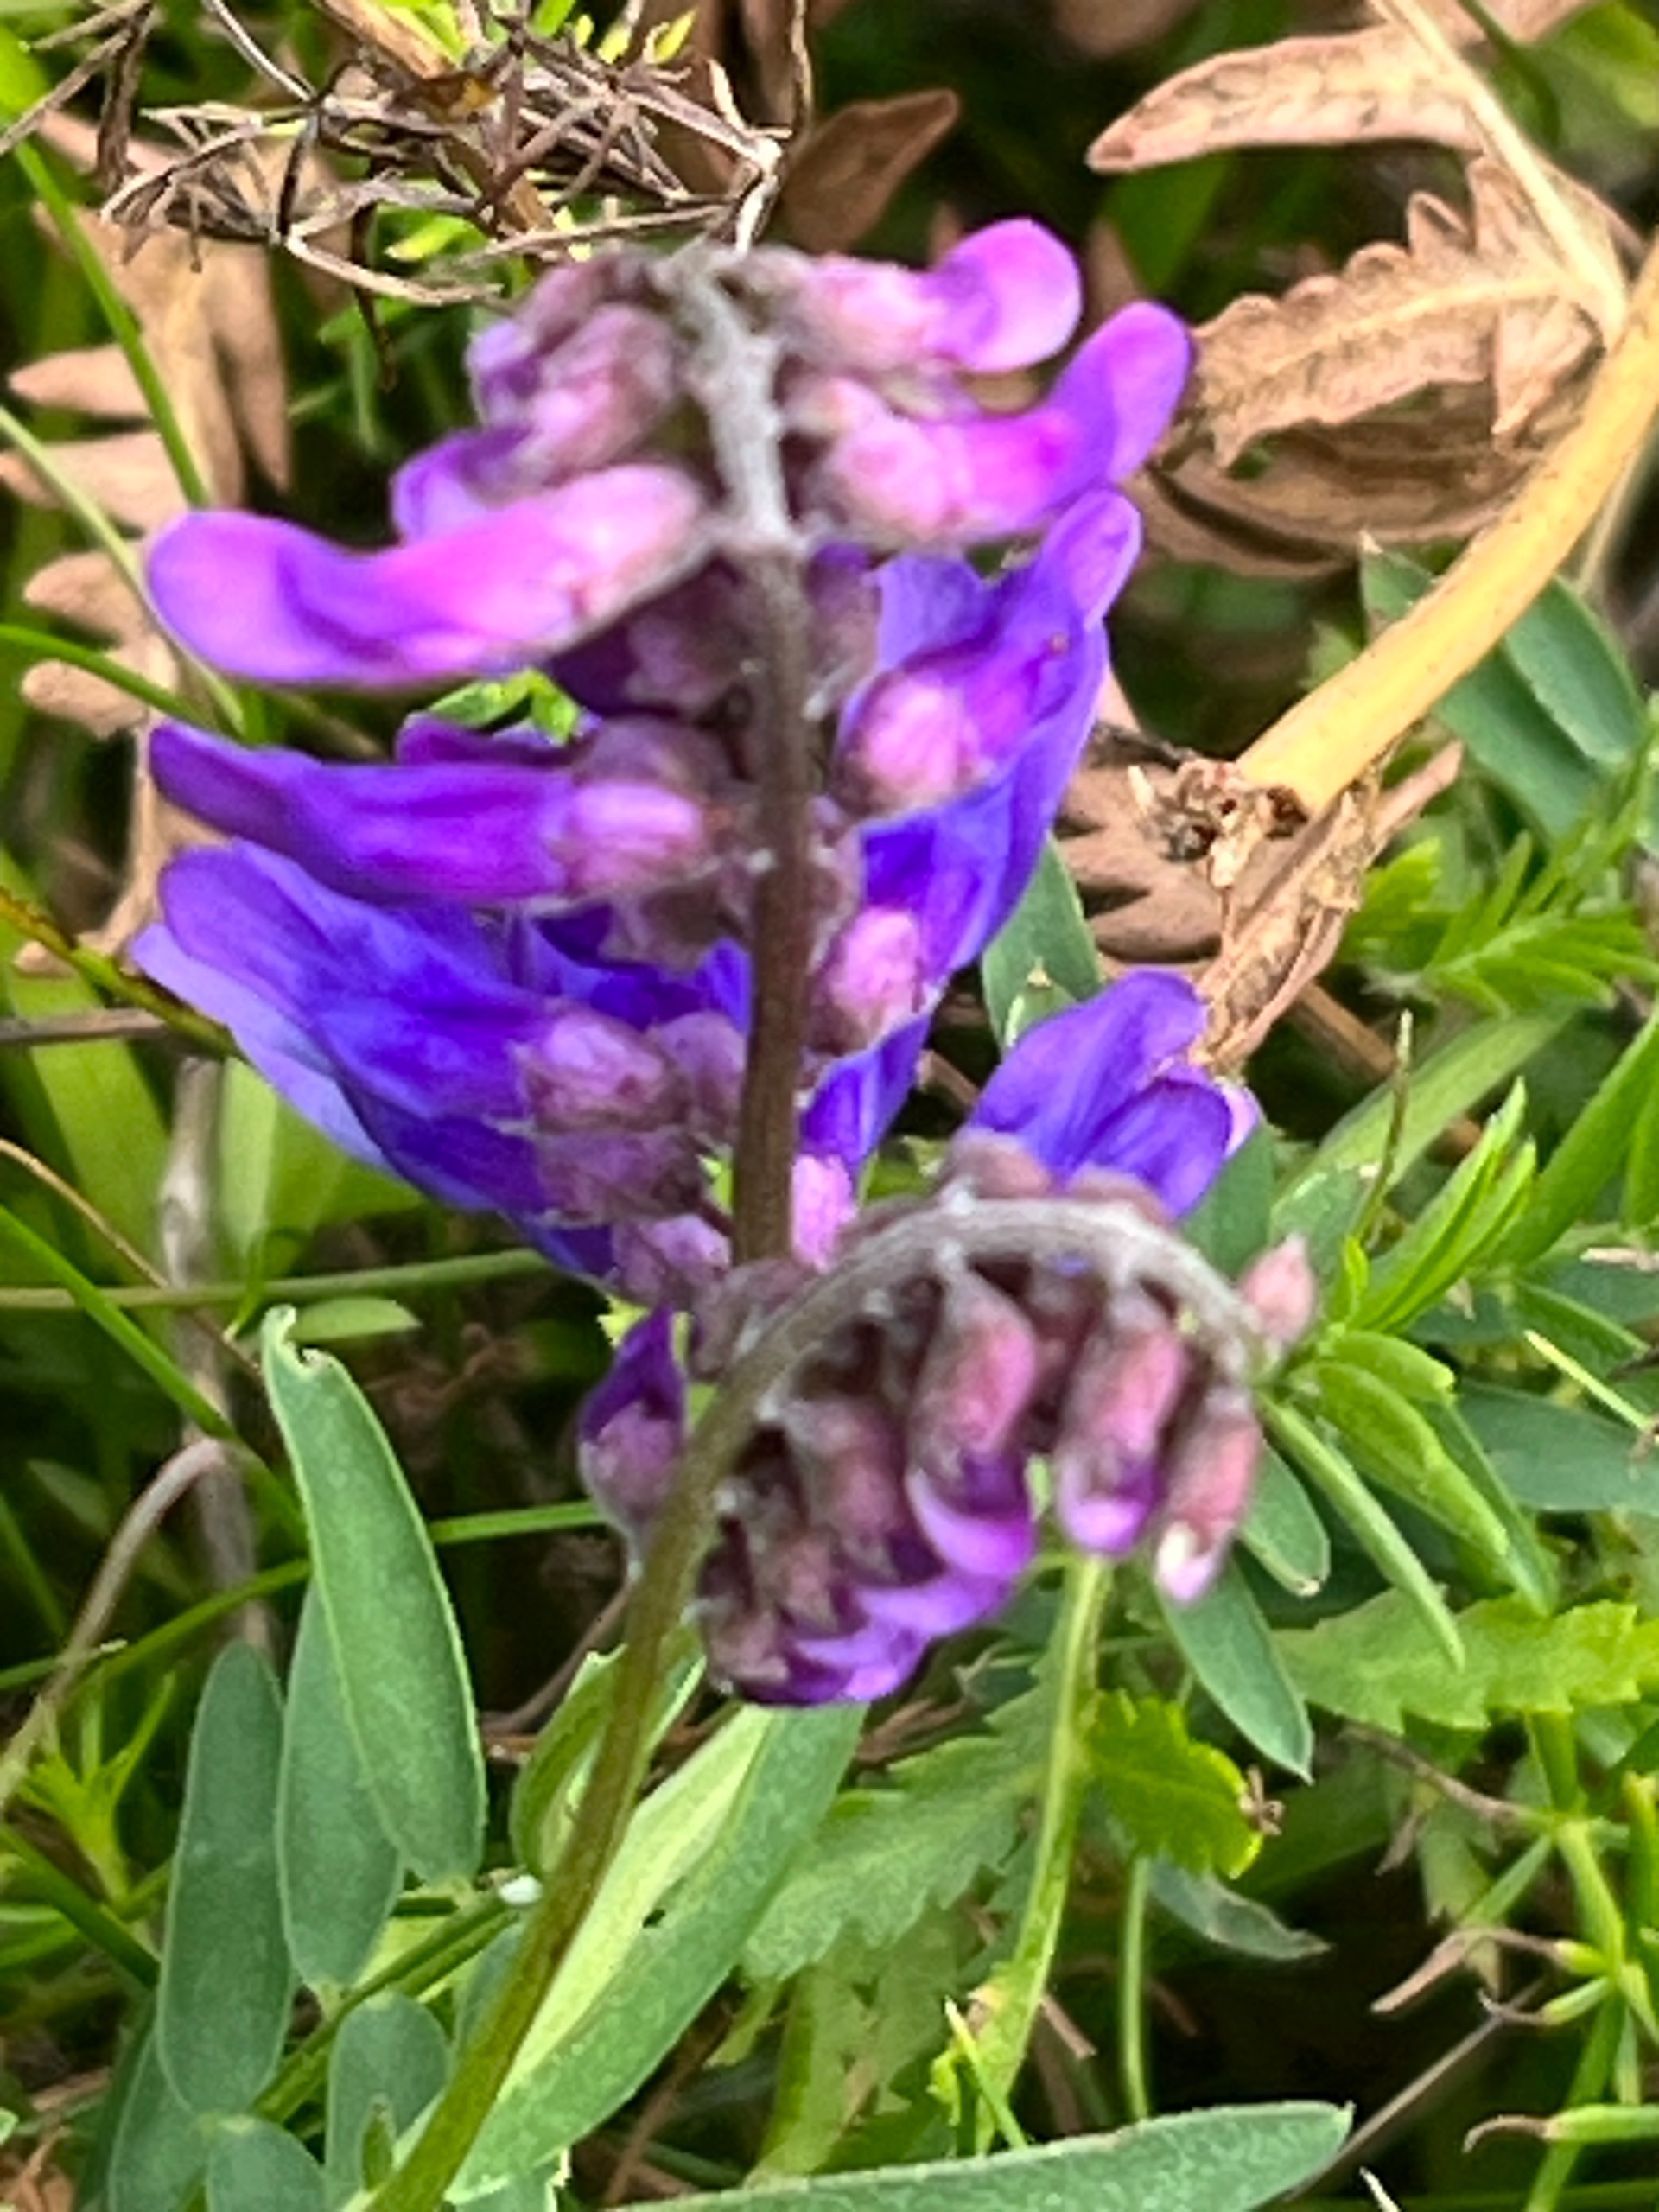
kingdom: Plantae
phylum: Tracheophyta
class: Magnoliopsida
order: Fabales
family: Fabaceae
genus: Vicia
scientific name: Vicia cracca
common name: Muse-vikke
